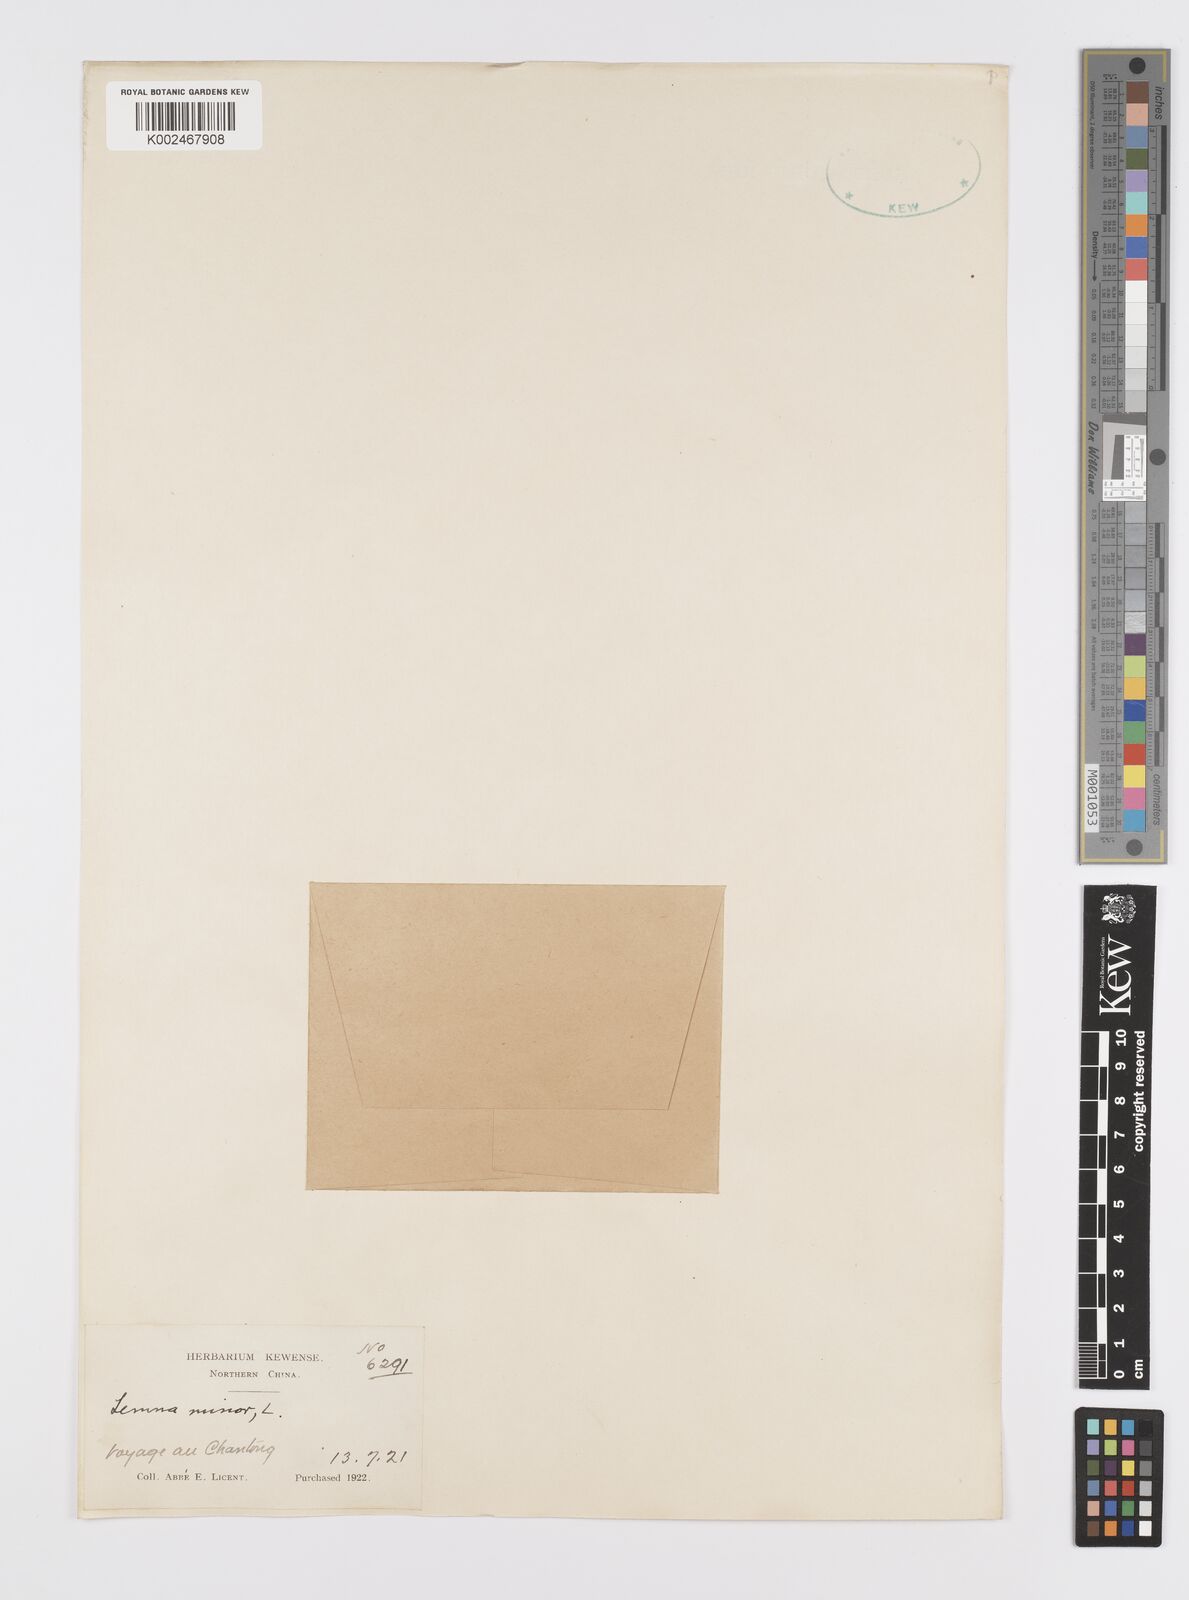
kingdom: Plantae
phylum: Tracheophyta
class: Liliopsida
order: Alismatales
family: Araceae
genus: Lemna
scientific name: Lemna minor
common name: Common duckweed
